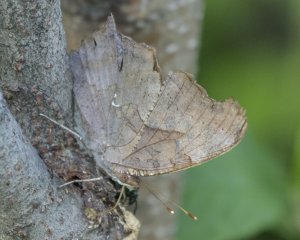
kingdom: Animalia
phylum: Arthropoda
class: Insecta
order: Lepidoptera
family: Nymphalidae
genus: Polygonia
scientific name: Polygonia interrogationis
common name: Question Mark
